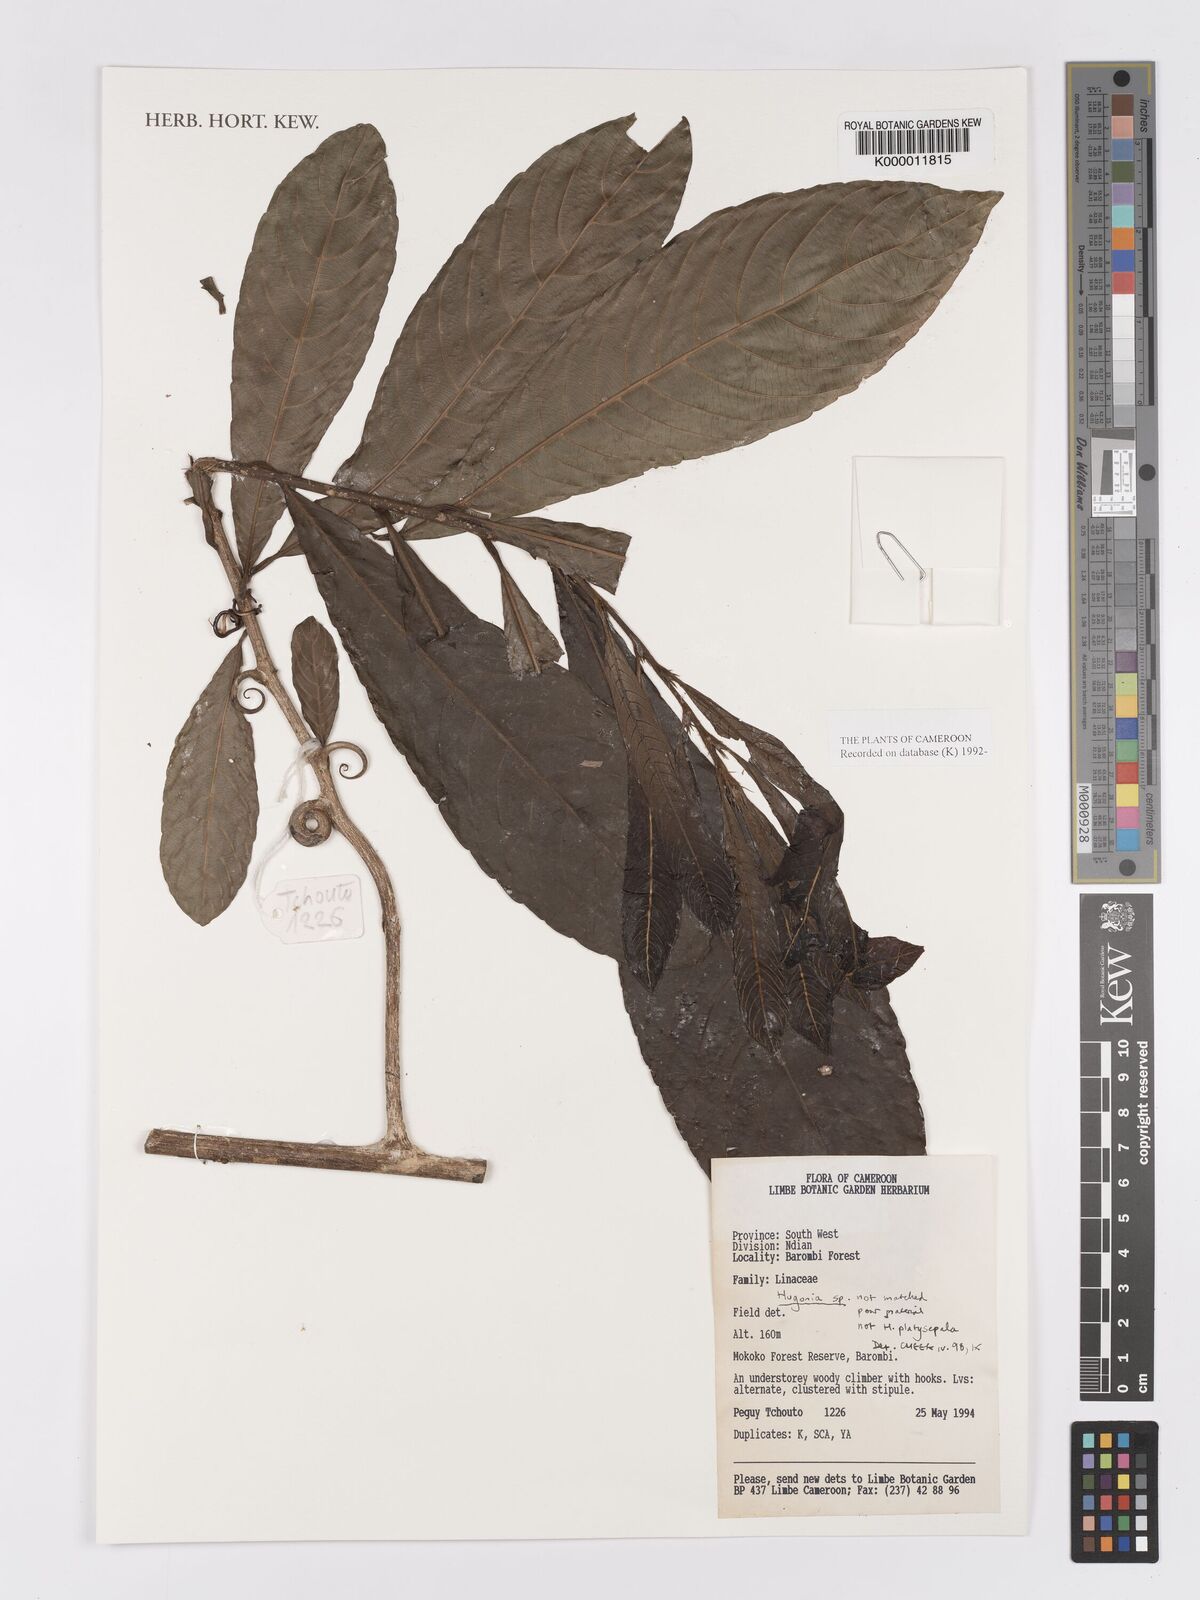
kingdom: Plantae
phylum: Tracheophyta
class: Magnoliopsida
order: Malpighiales
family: Linaceae
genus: Hugonia
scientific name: Hugonia
